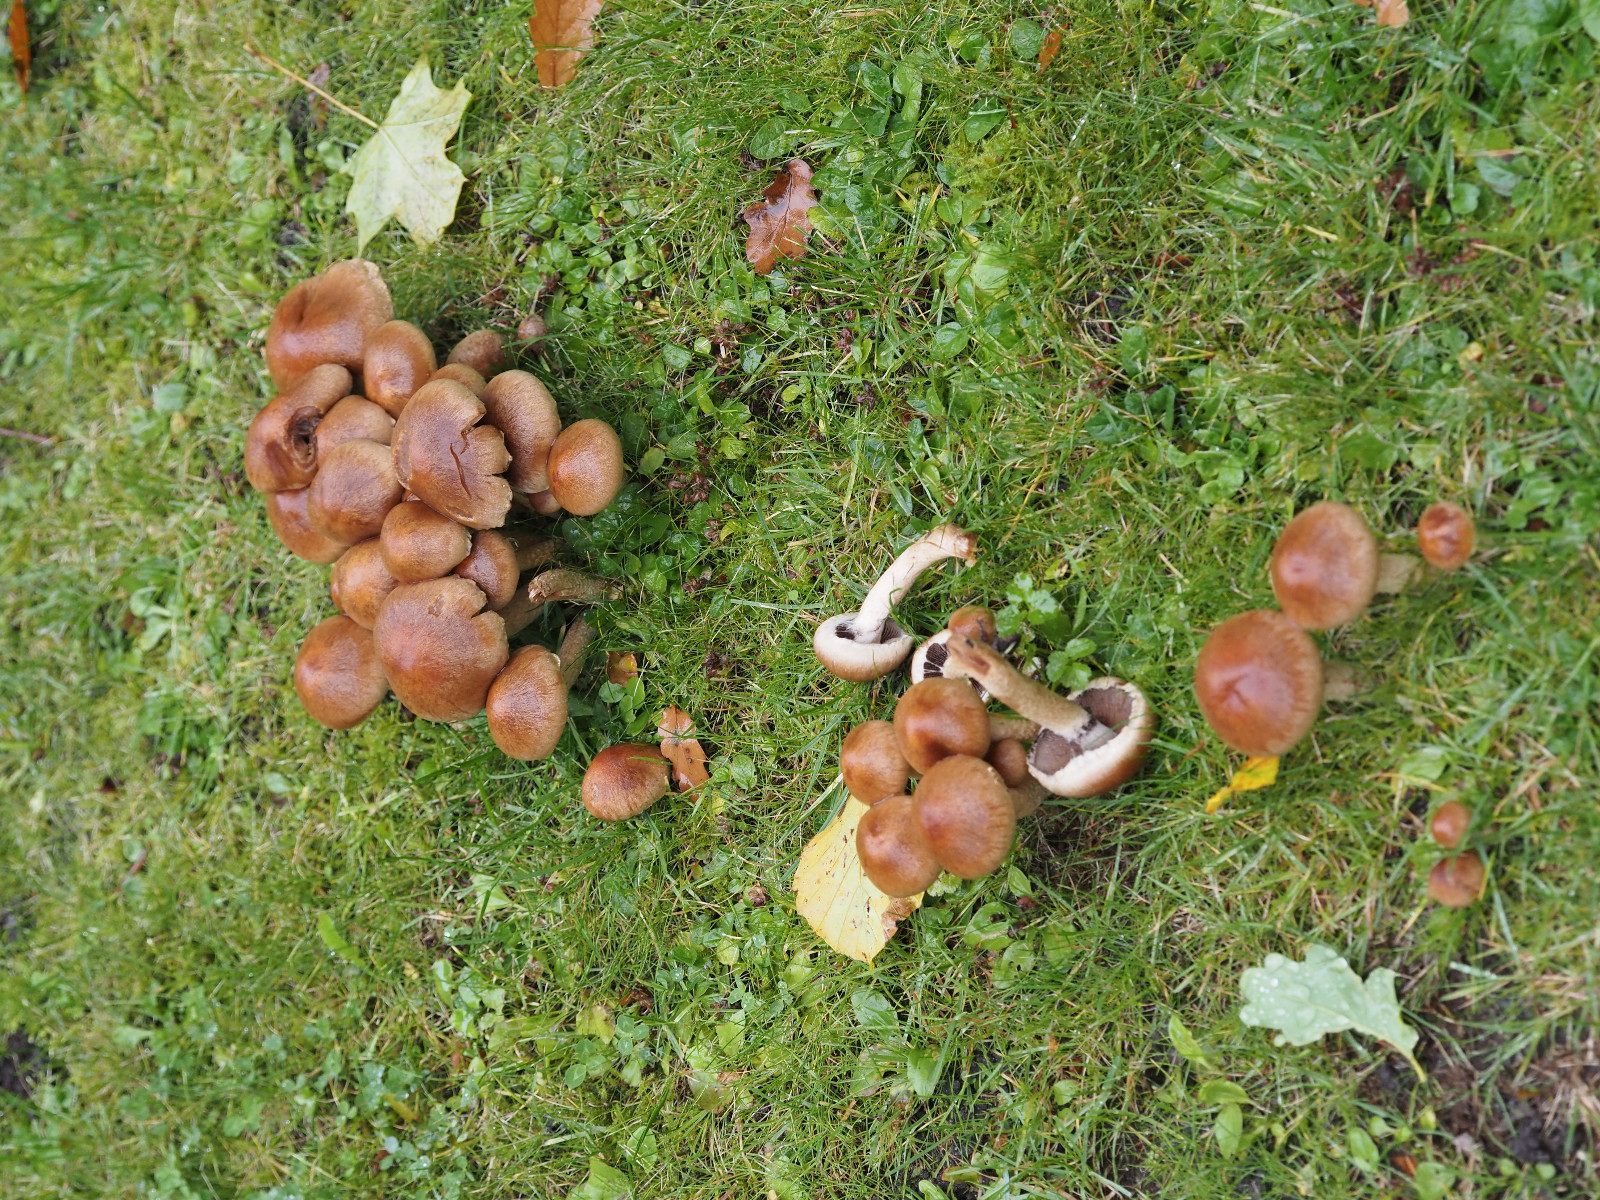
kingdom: Fungi
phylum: Basidiomycota
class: Agaricomycetes
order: Agaricales
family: Psathyrellaceae
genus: Lacrymaria
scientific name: Lacrymaria lacrymabunda
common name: grædende mørkhat
